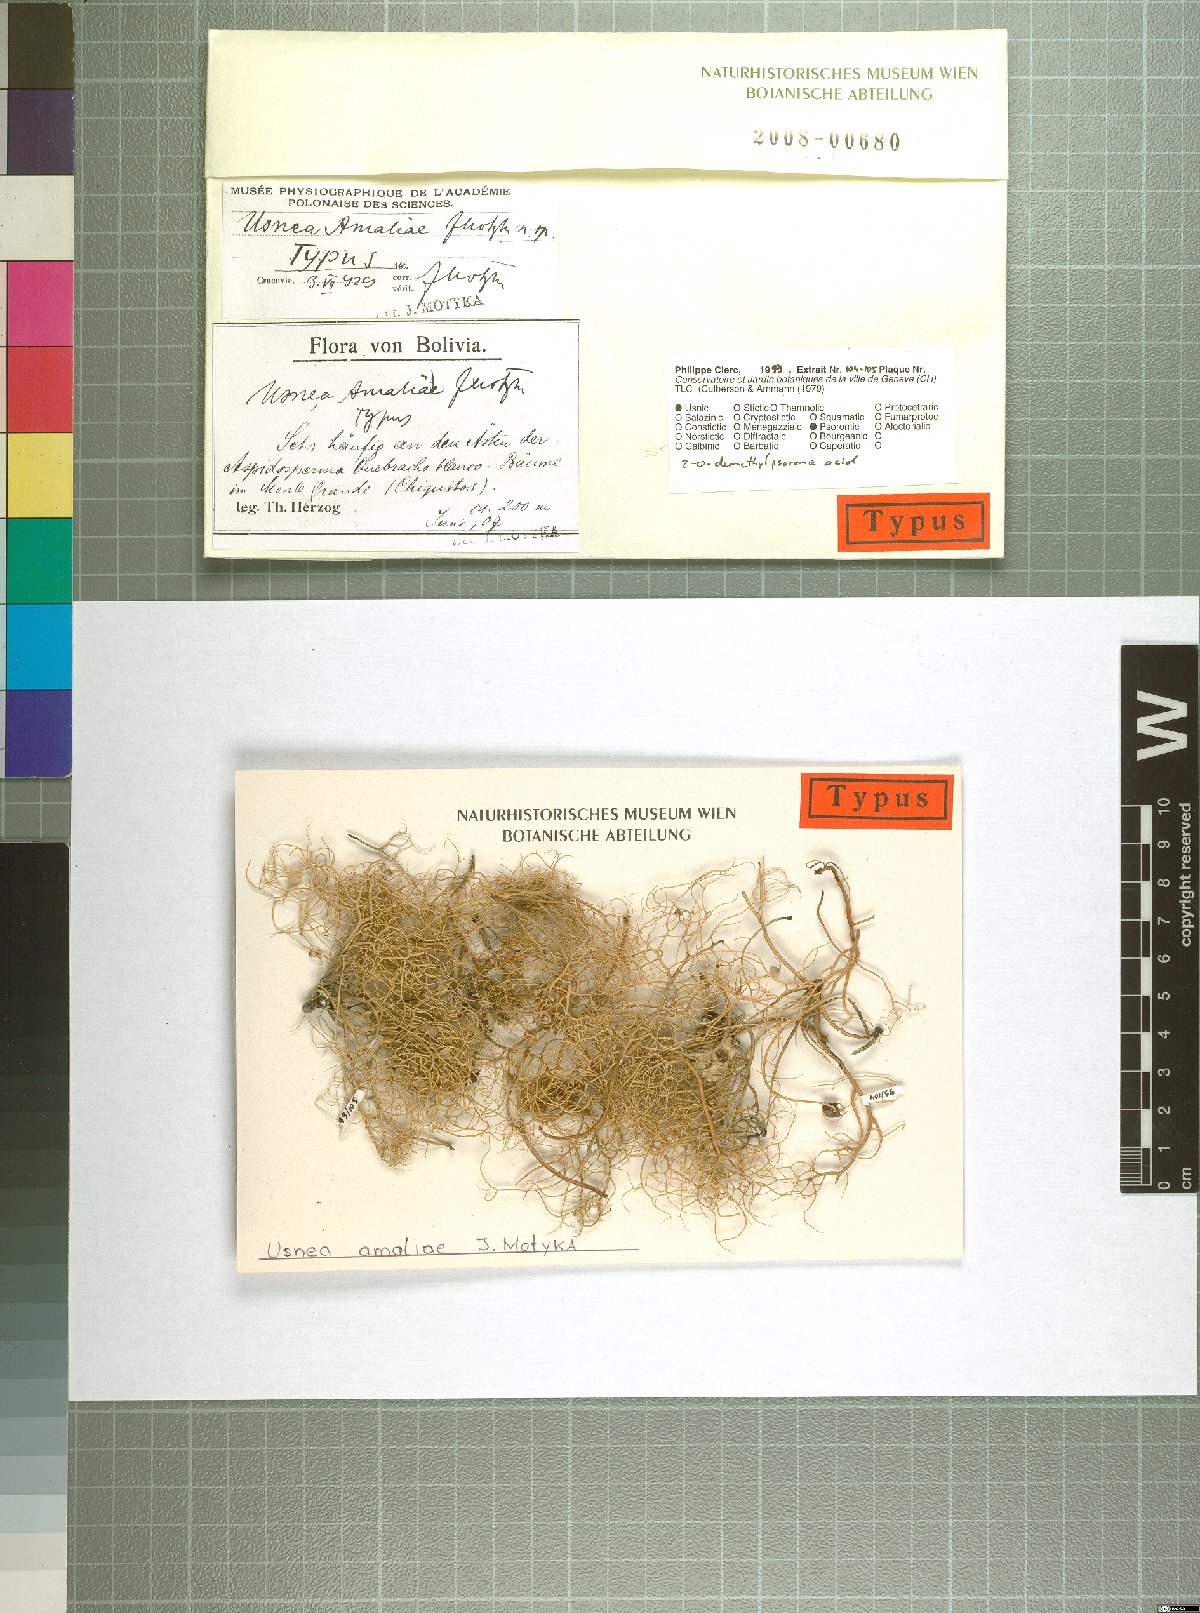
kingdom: Fungi
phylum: Ascomycota
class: Lecanoromycetes
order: Lecanorales
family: Parmeliaceae
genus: Usnea
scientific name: Usnea amaliae
